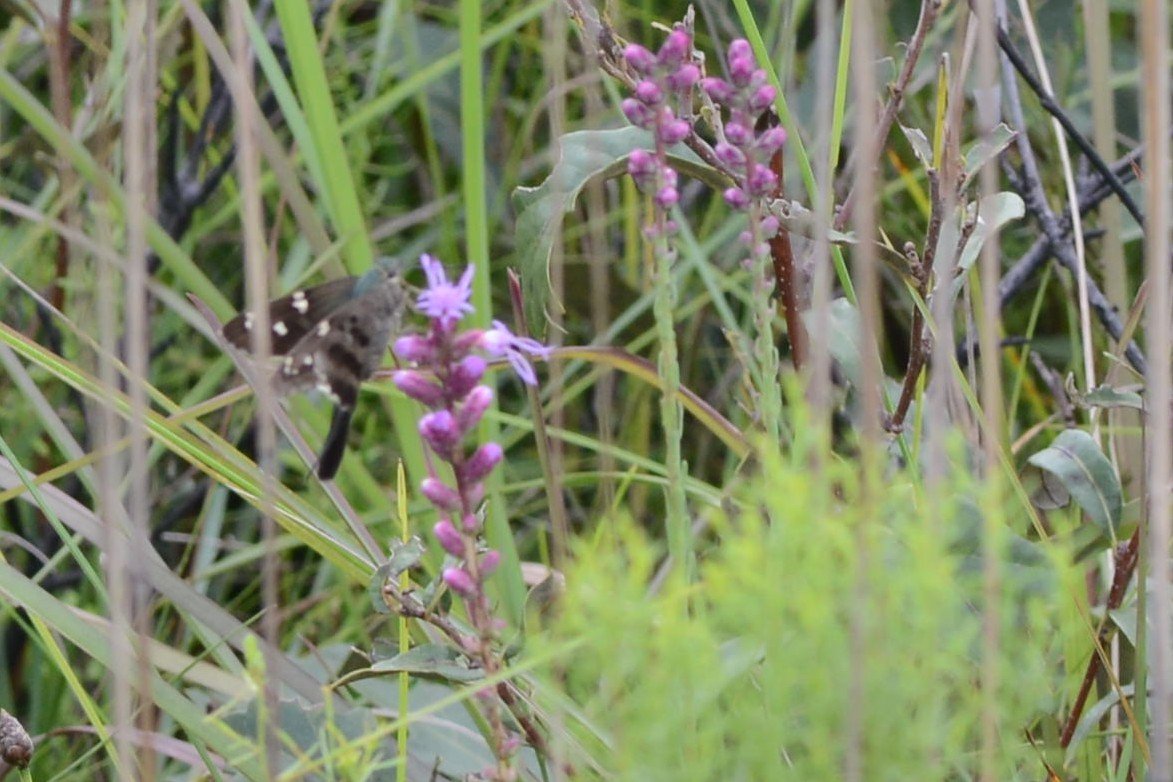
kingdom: Animalia
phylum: Arthropoda
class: Insecta
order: Lepidoptera
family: Hesperiidae
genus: Urbanus
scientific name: Urbanus proteus
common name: Long-tailed Skipper
